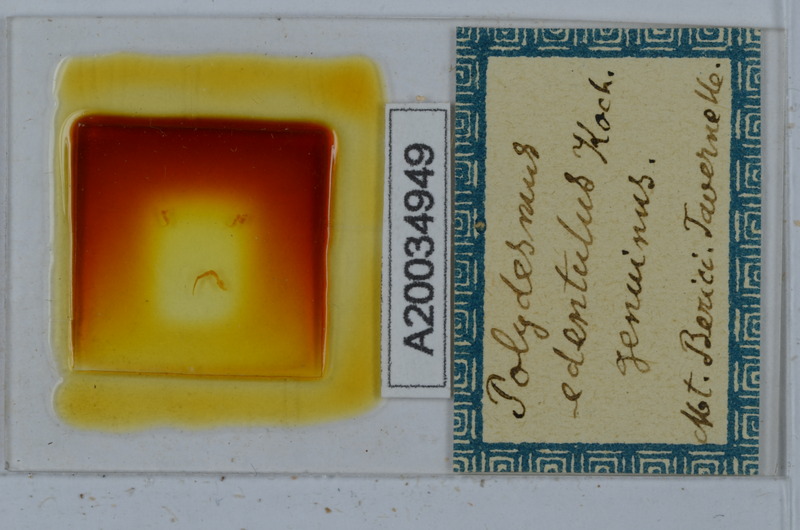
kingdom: Animalia
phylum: Arthropoda
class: Diplopoda
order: Polydesmida
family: Polydesmidae
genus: Polydesmus
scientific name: Polydesmus edentulus
